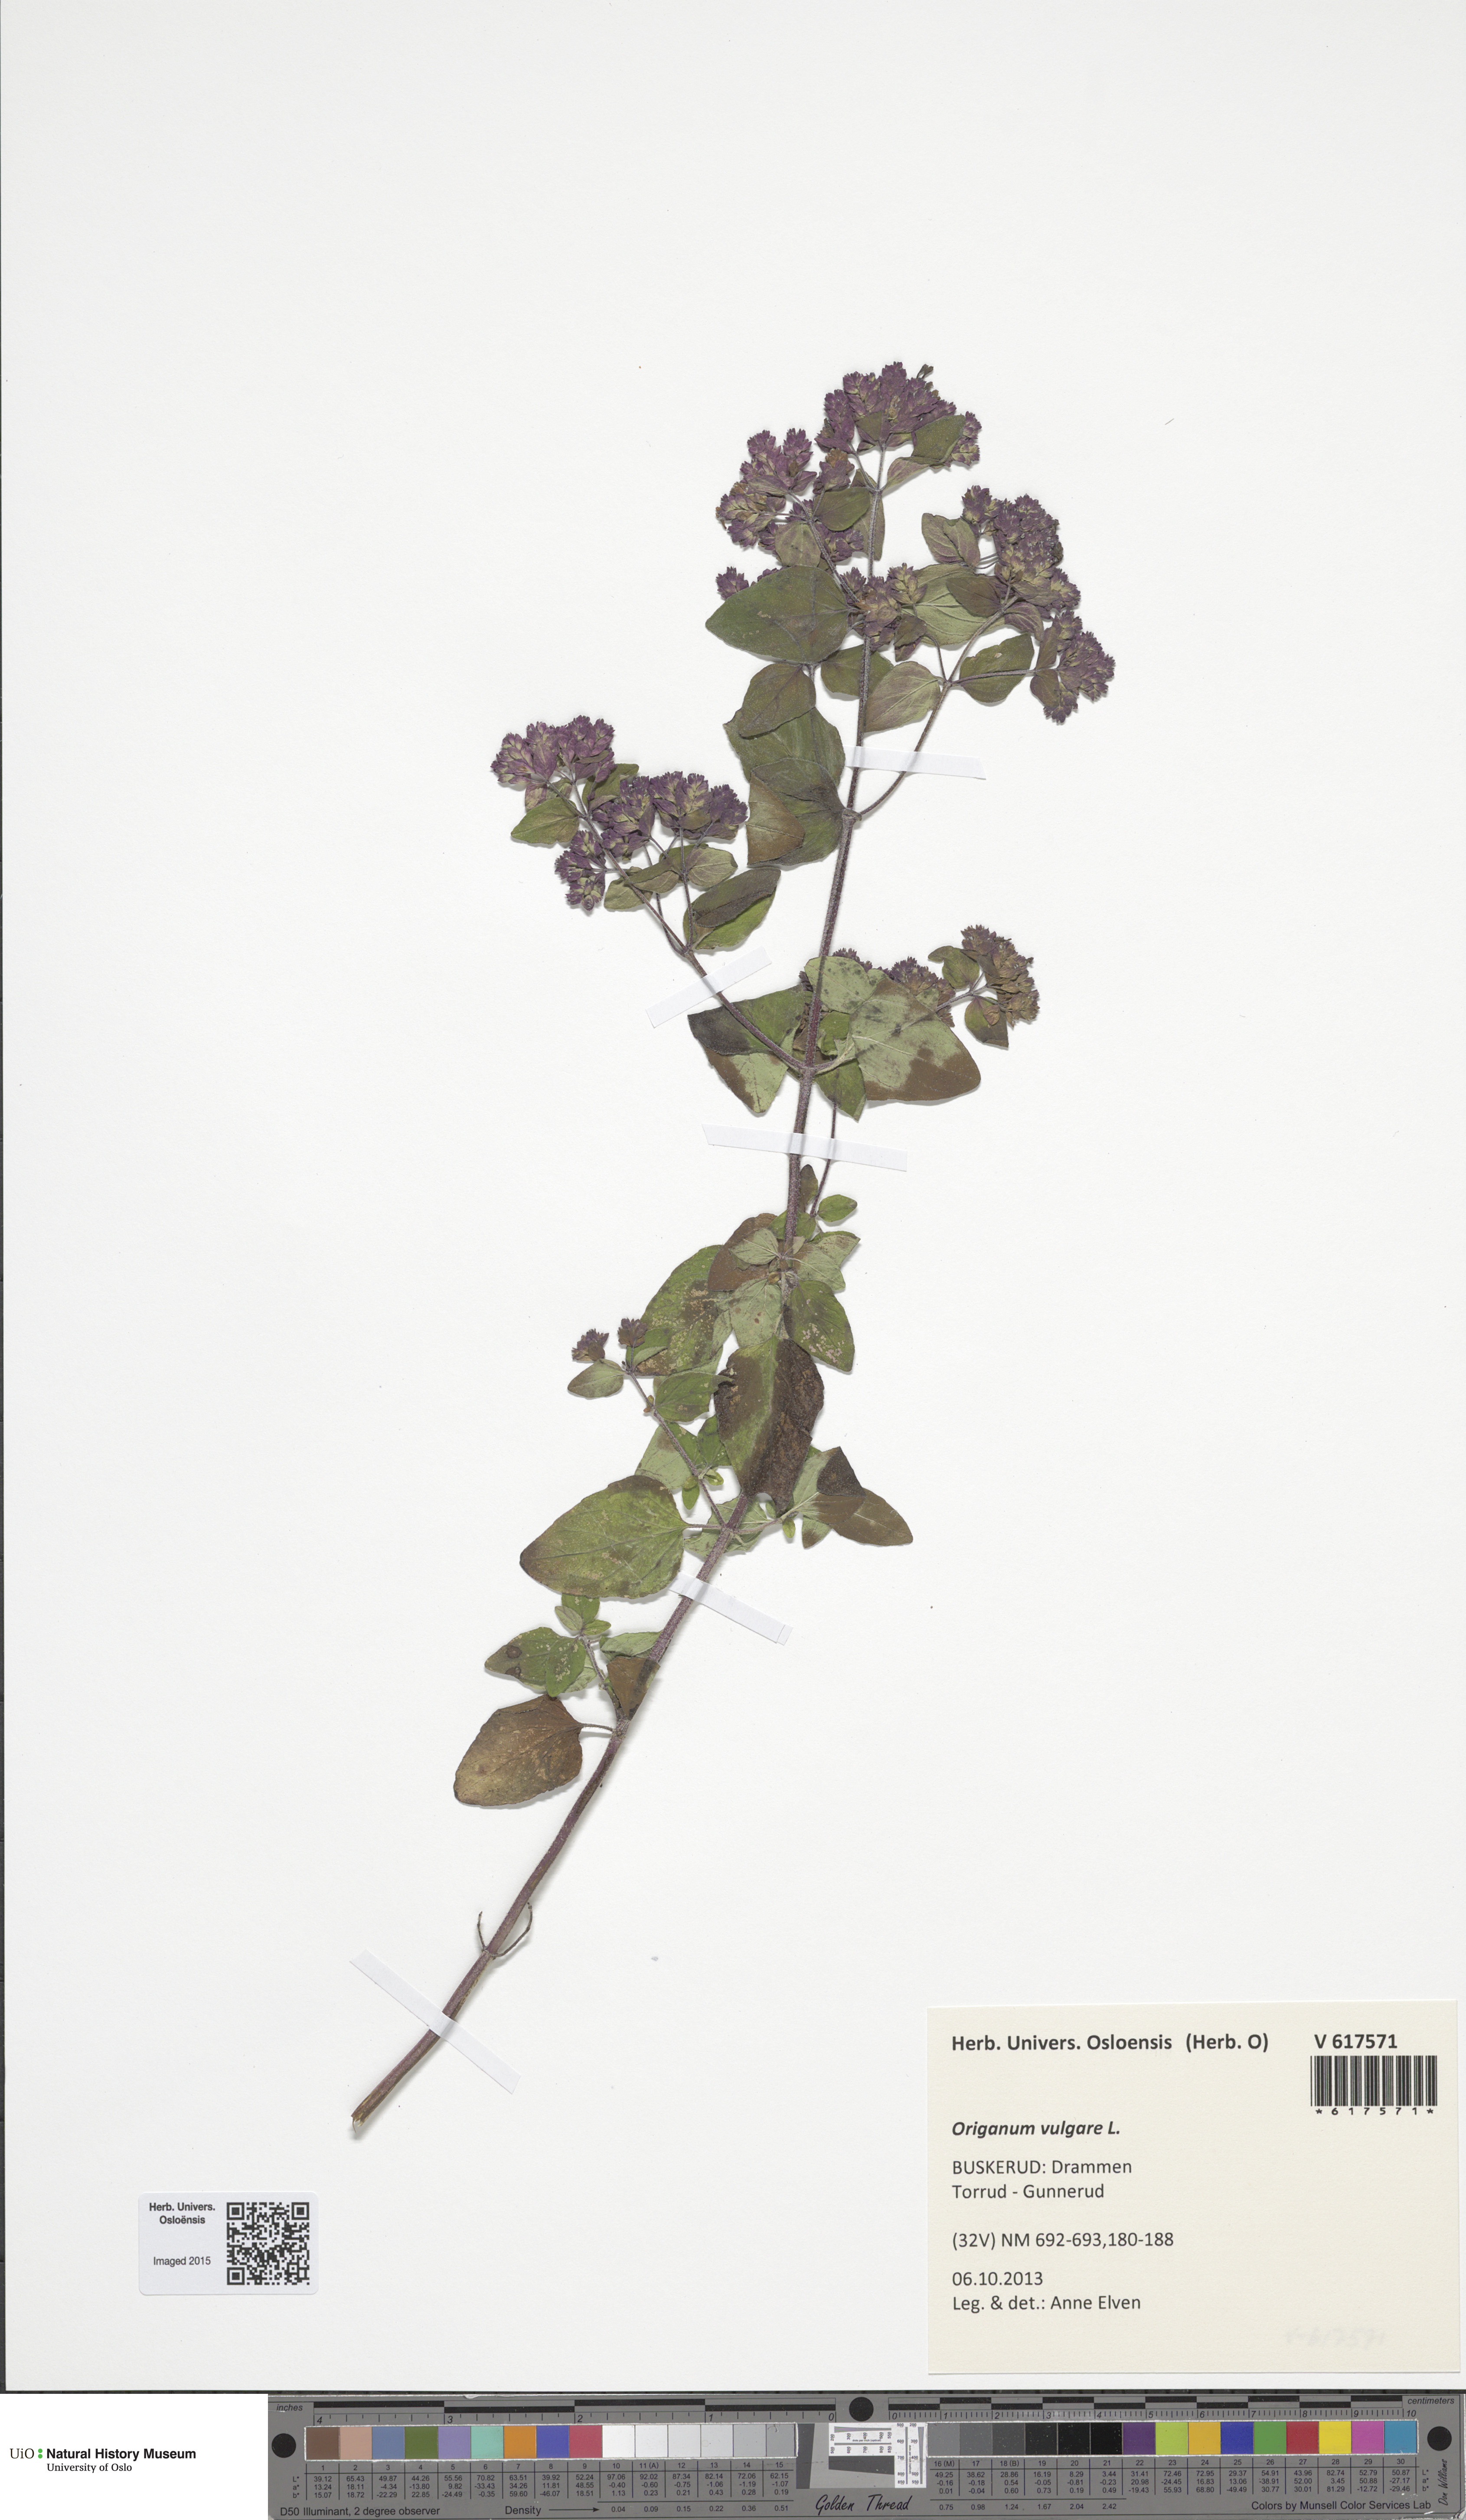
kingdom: Plantae
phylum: Tracheophyta
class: Magnoliopsida
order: Lamiales
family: Lamiaceae
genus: Origanum
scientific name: Origanum vulgare
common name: Wild marjoram
